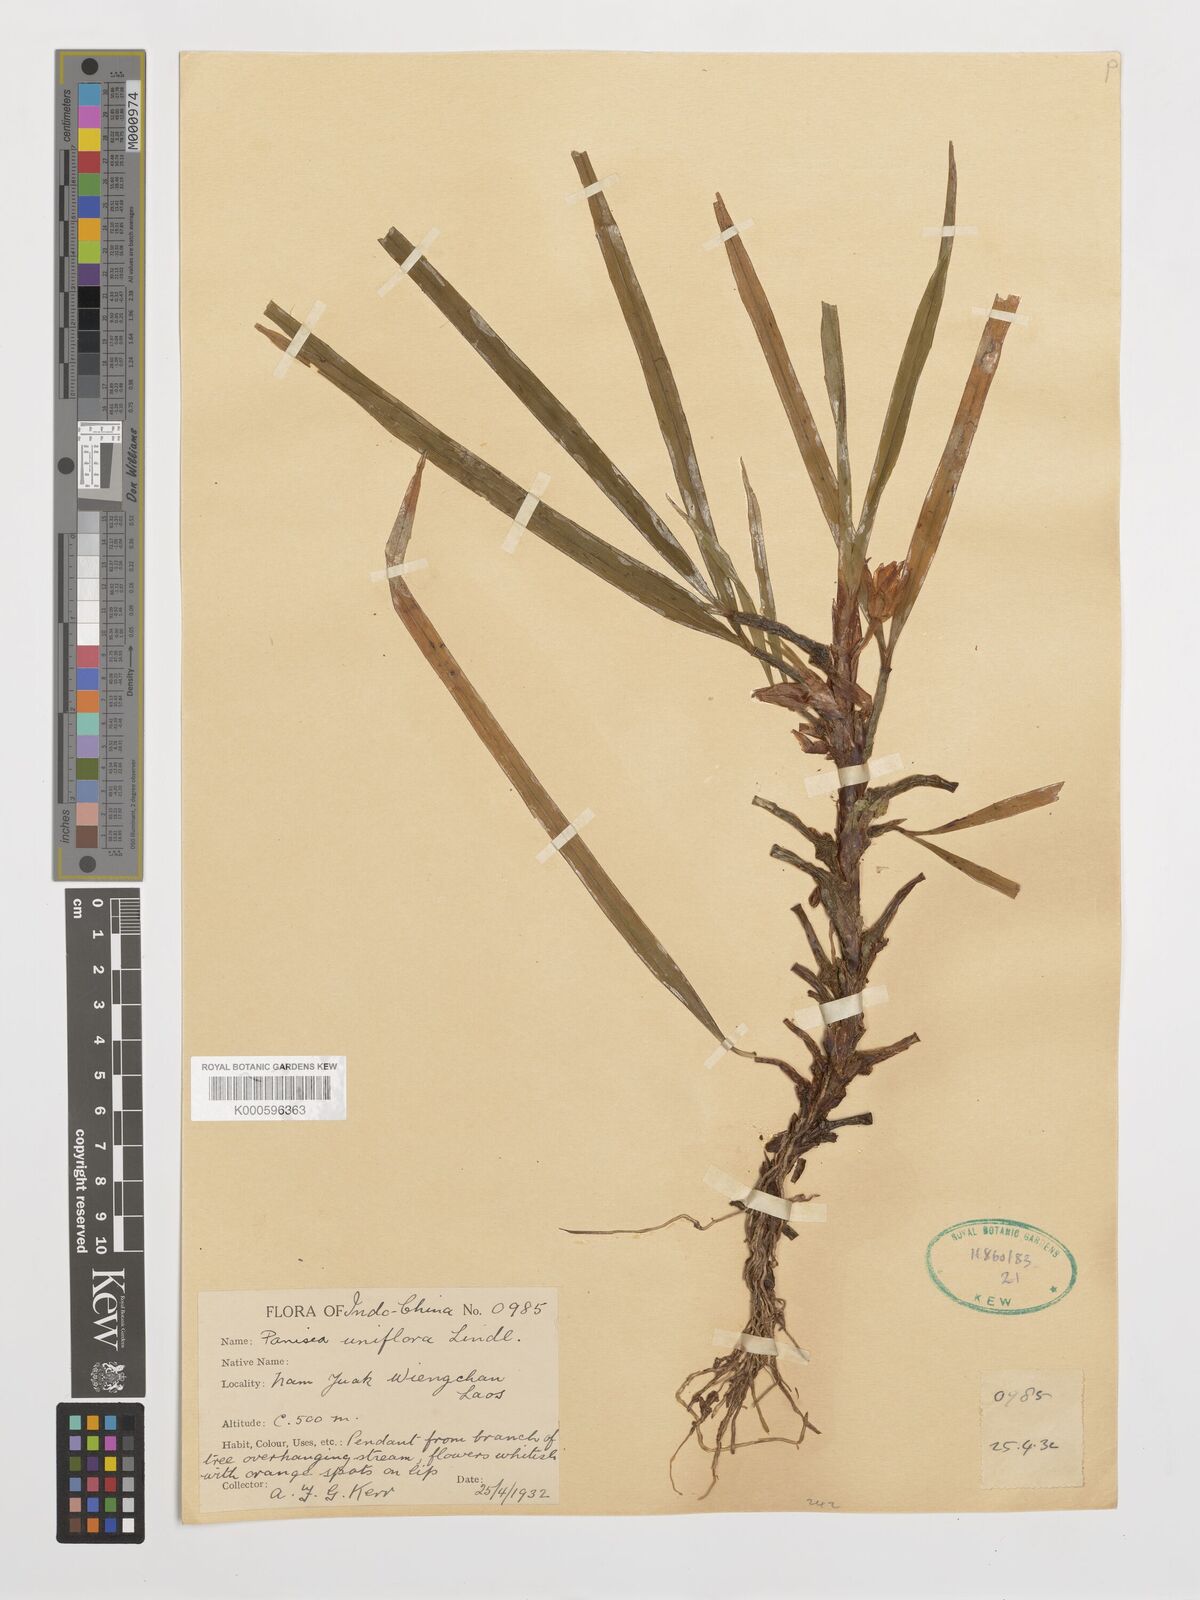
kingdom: Plantae
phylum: Tracheophyta
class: Liliopsida
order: Asparagales
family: Orchidaceae
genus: Coelogyne
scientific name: Coelogyne uniflora
